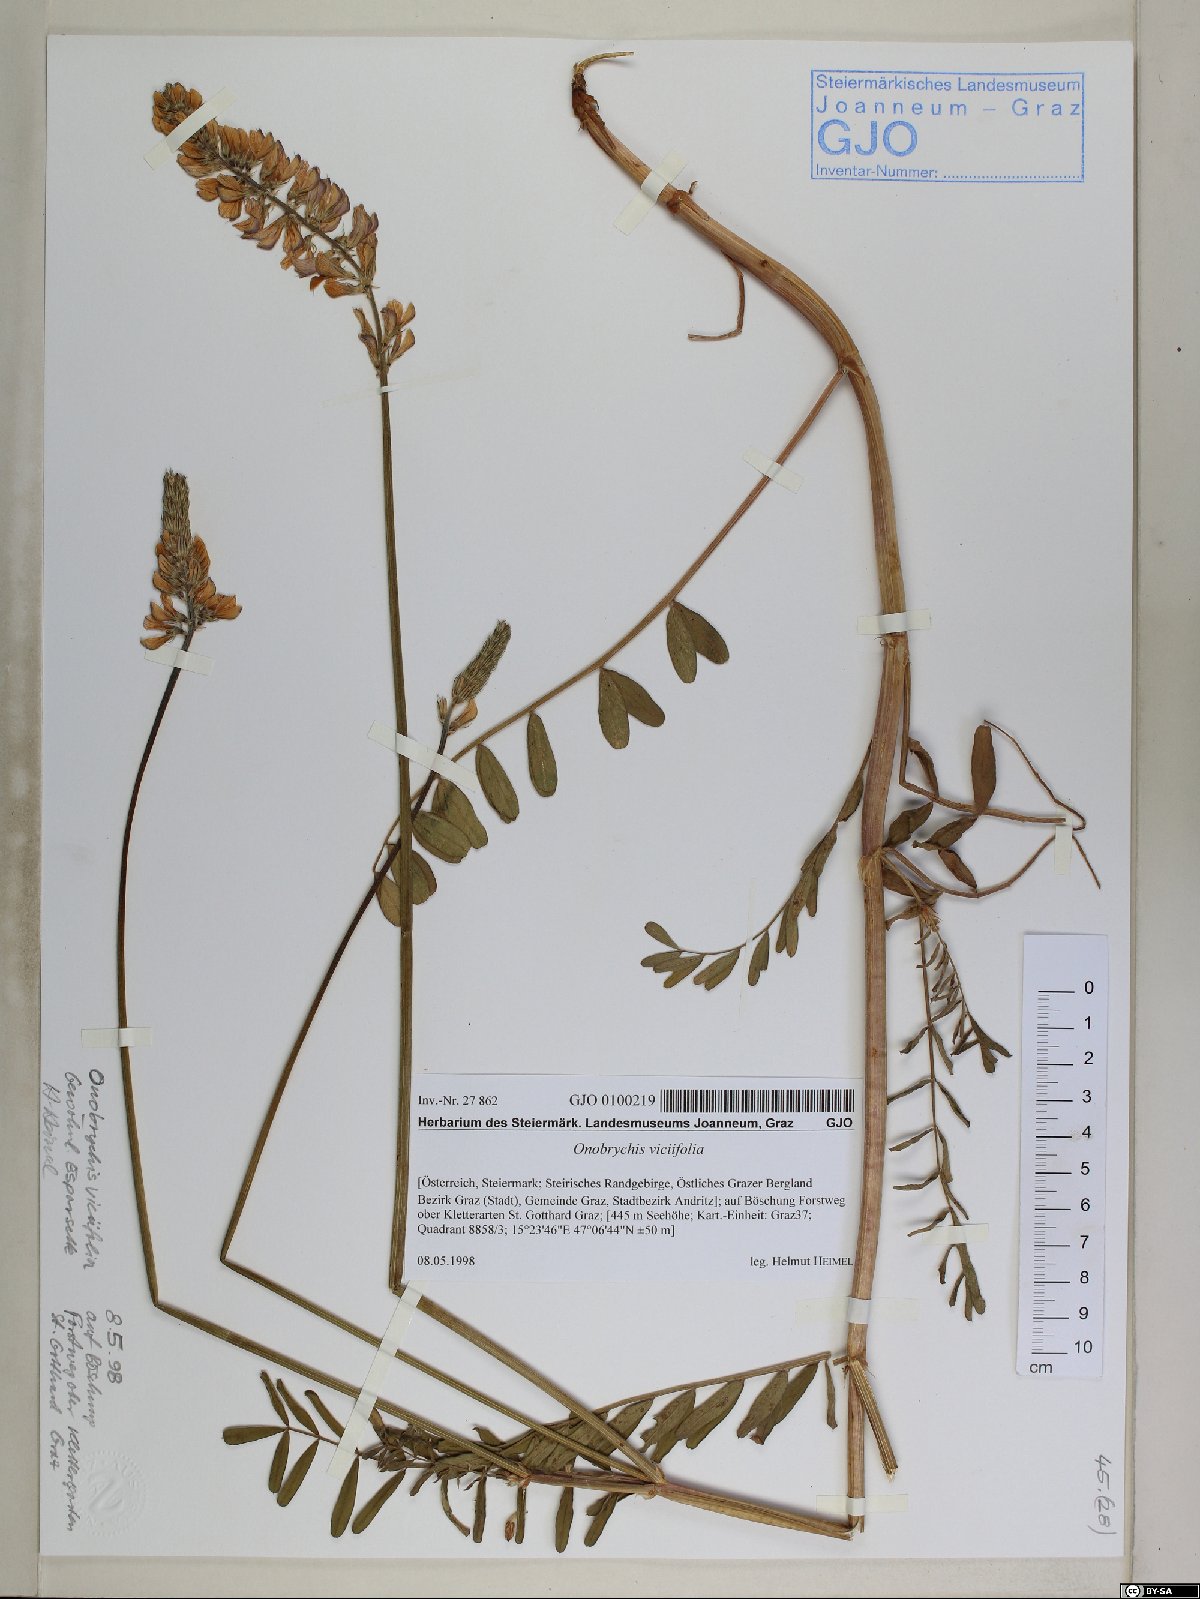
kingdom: Plantae
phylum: Tracheophyta
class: Magnoliopsida
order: Fabales
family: Fabaceae
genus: Onobrychis
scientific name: Onobrychis viciifolia
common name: Sainfoin
